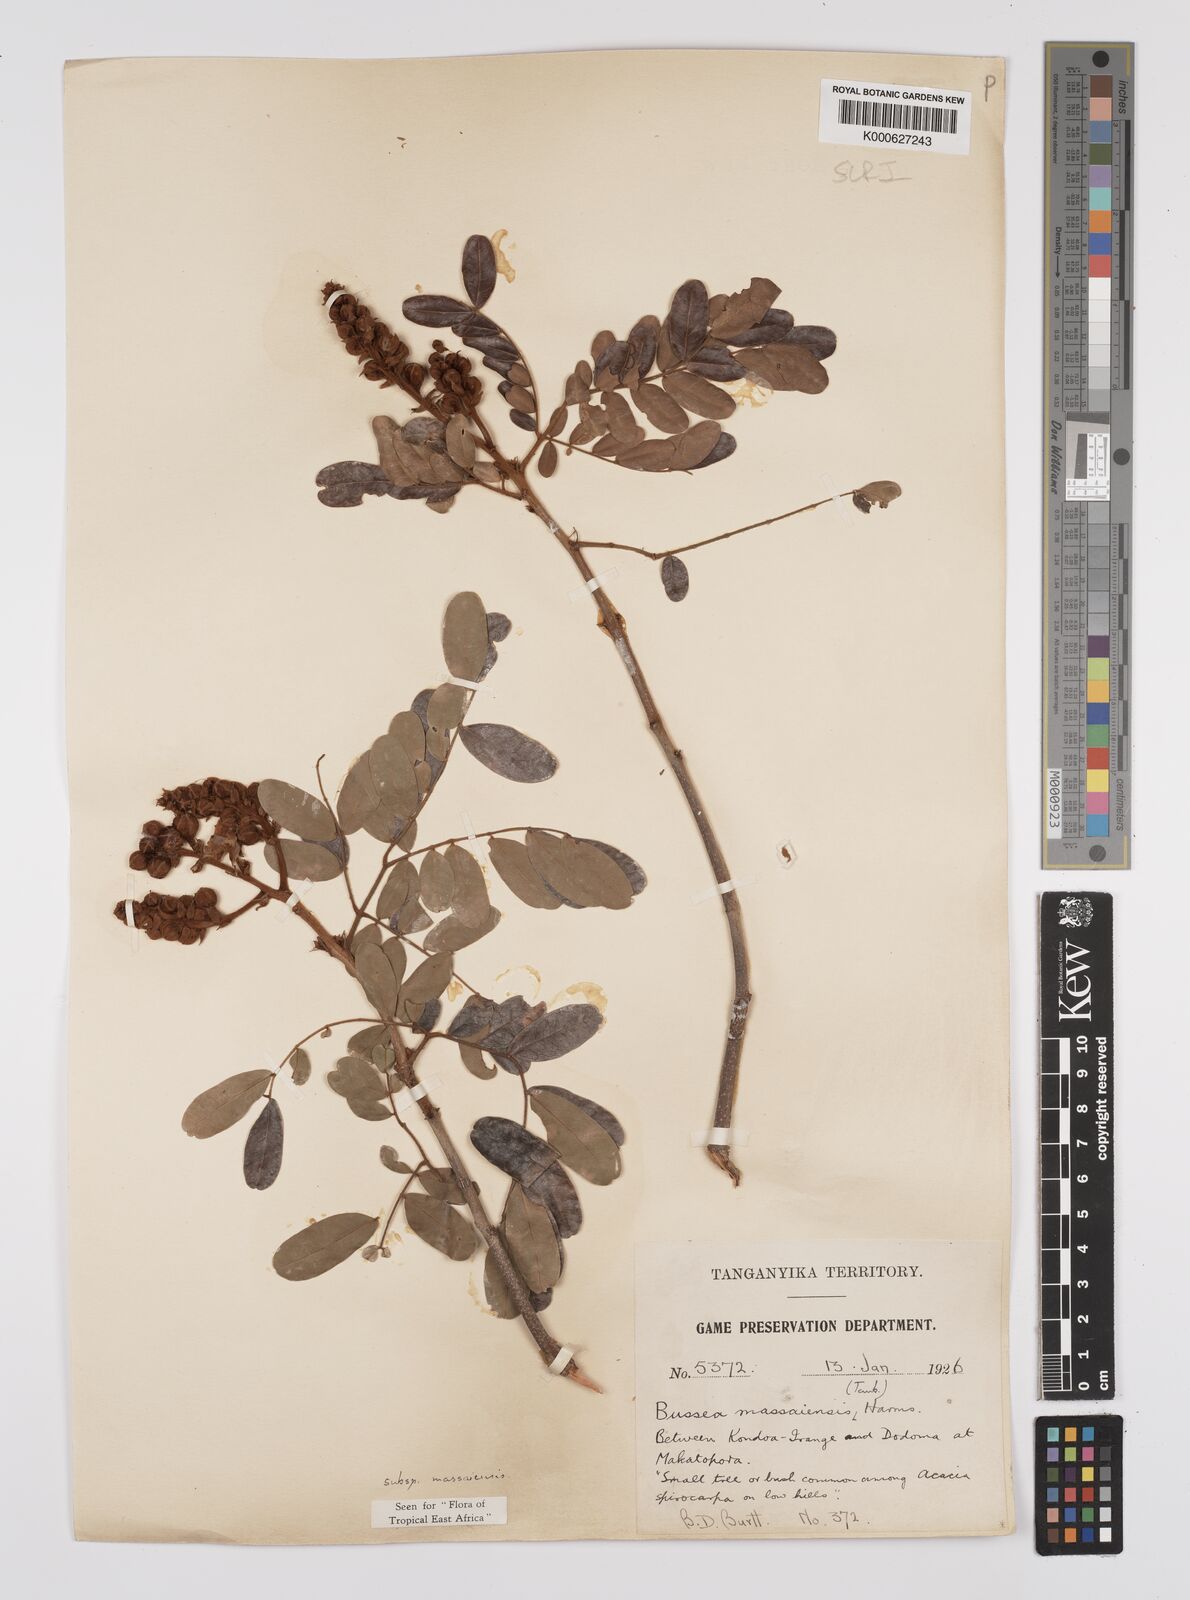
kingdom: Plantae
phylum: Tracheophyta
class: Magnoliopsida
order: Fabales
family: Fabaceae
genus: Bussea
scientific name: Bussea
